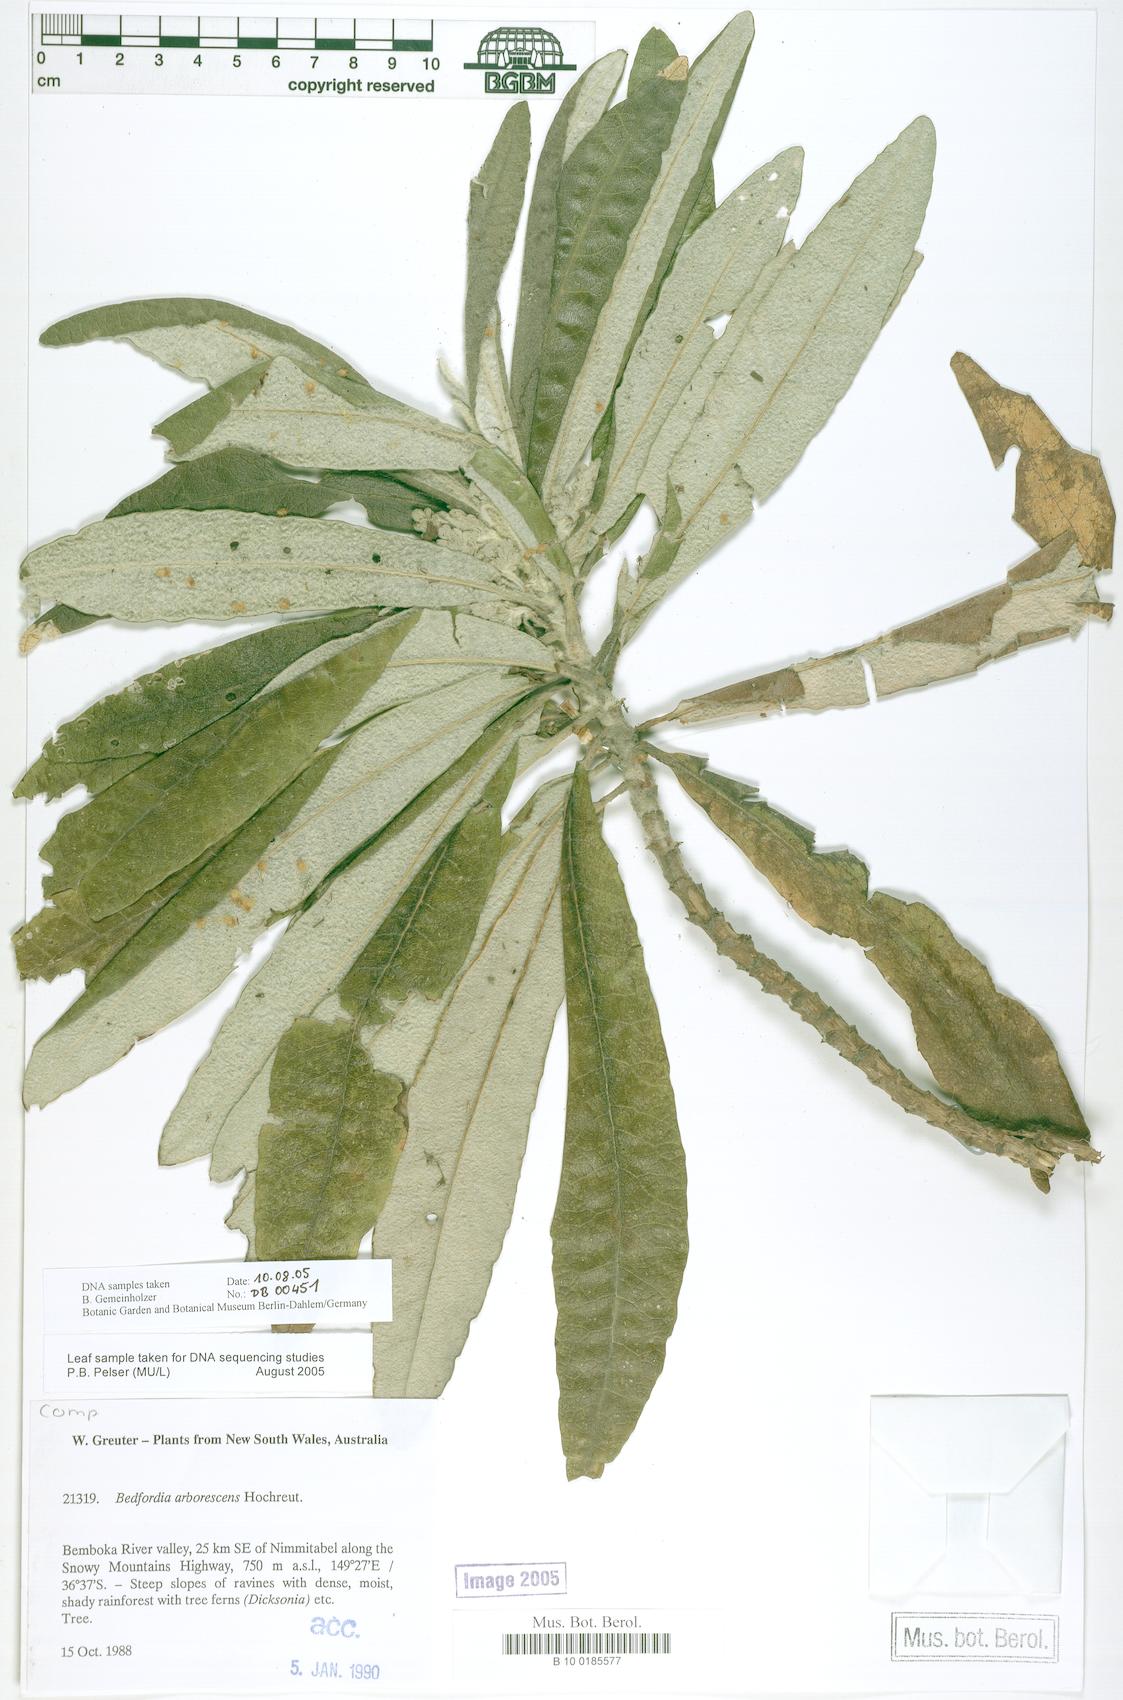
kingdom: Plantae
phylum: Tracheophyta
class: Magnoliopsida
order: Asterales
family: Asteraceae
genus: Bedfordia
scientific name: Bedfordia arborescens
